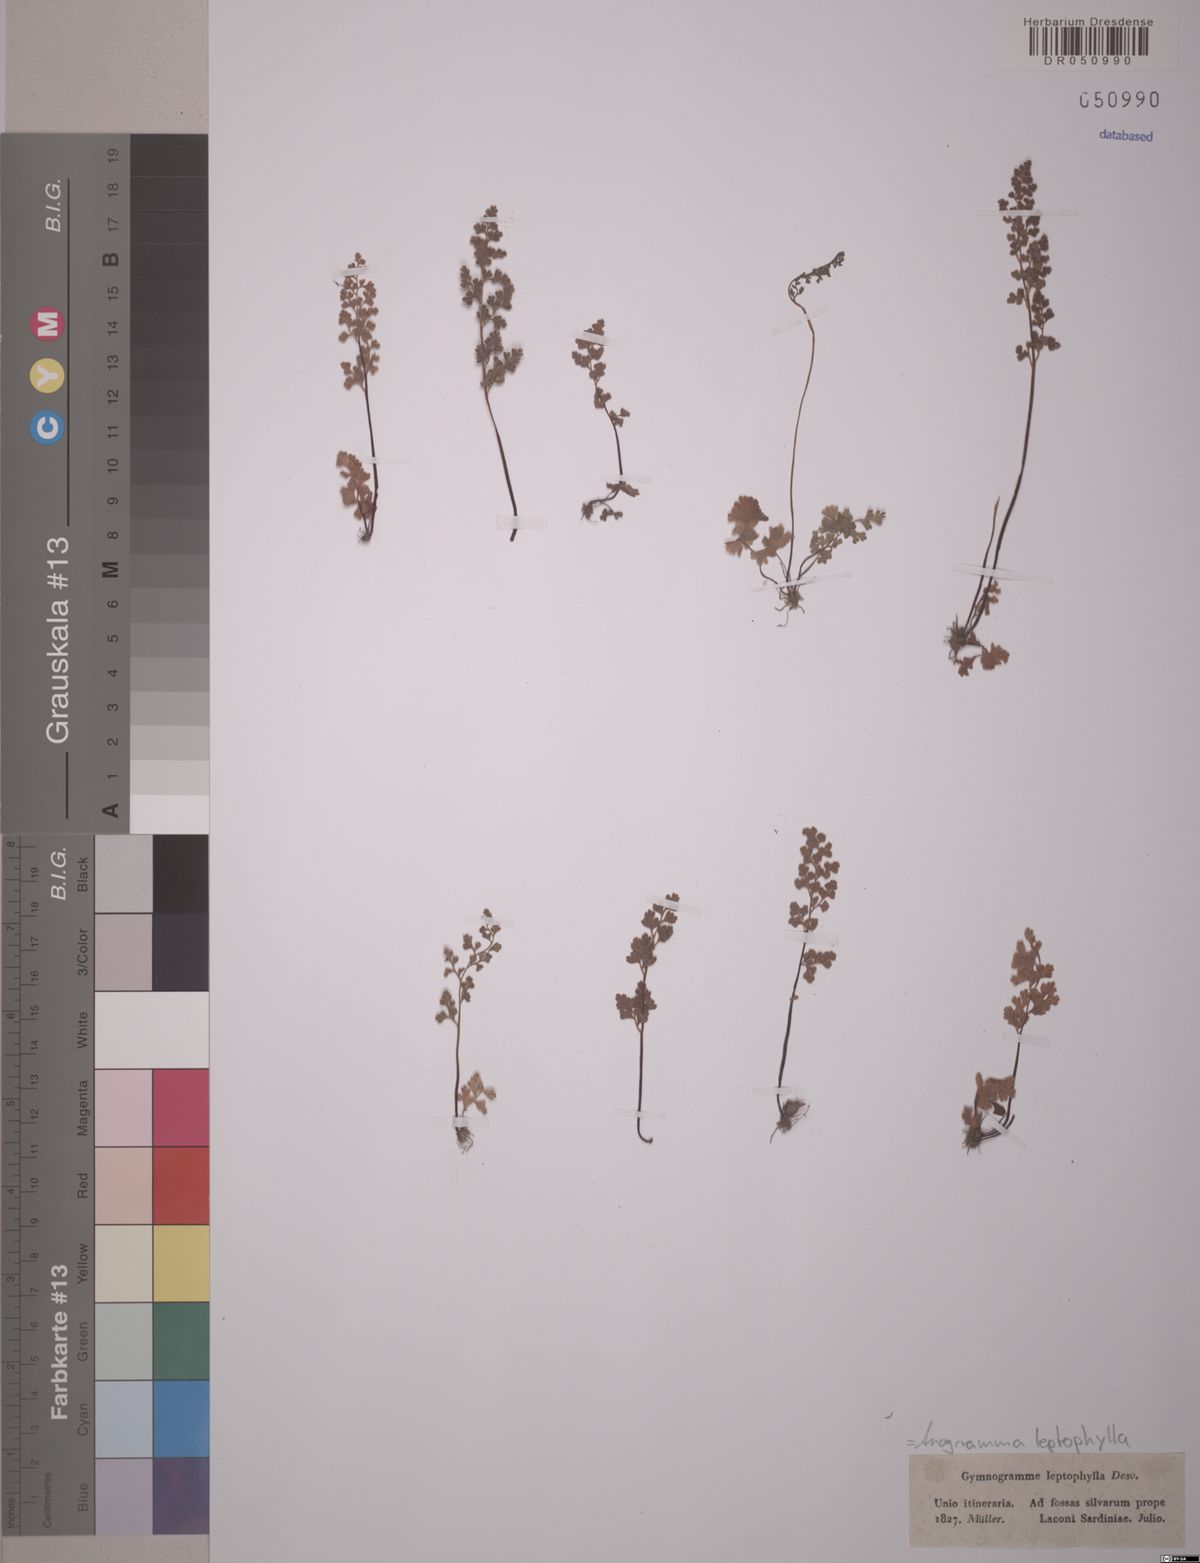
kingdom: Plantae
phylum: Tracheophyta
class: Polypodiopsida
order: Polypodiales
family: Pteridaceae
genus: Anogramma
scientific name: Anogramma leptophylla
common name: Jersey fern
